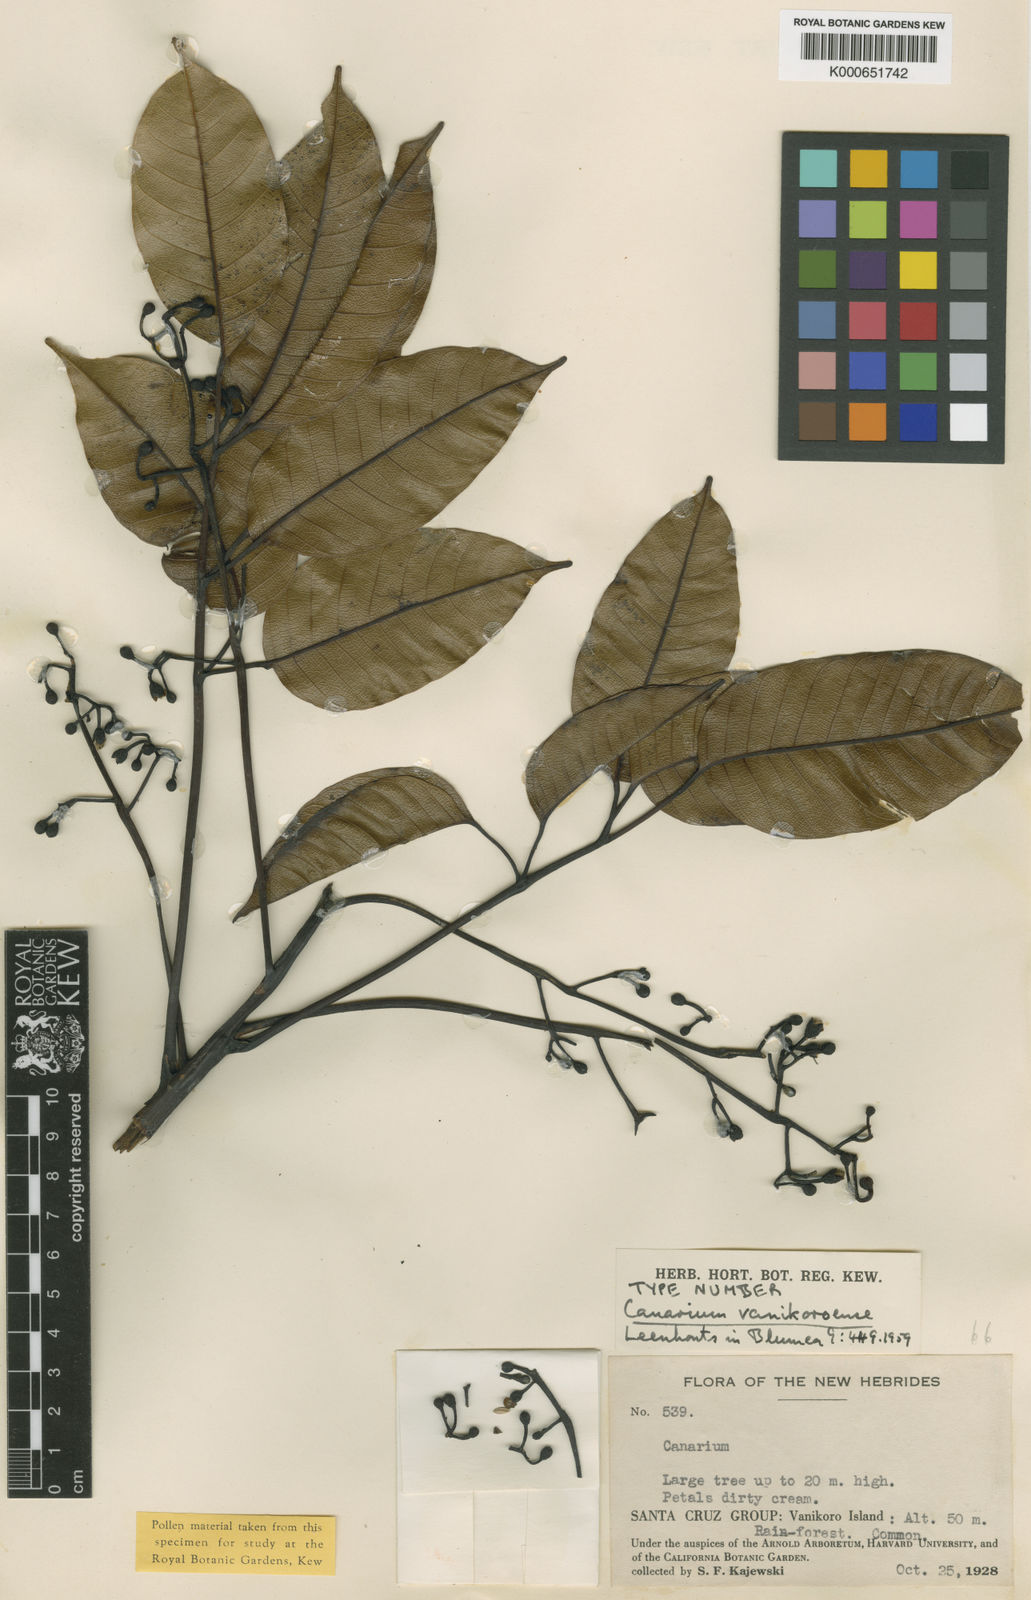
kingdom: Plantae
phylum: Tracheophyta
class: Magnoliopsida
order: Sapindales
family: Burseraceae
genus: Canarium
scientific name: Canarium vanikoroense
